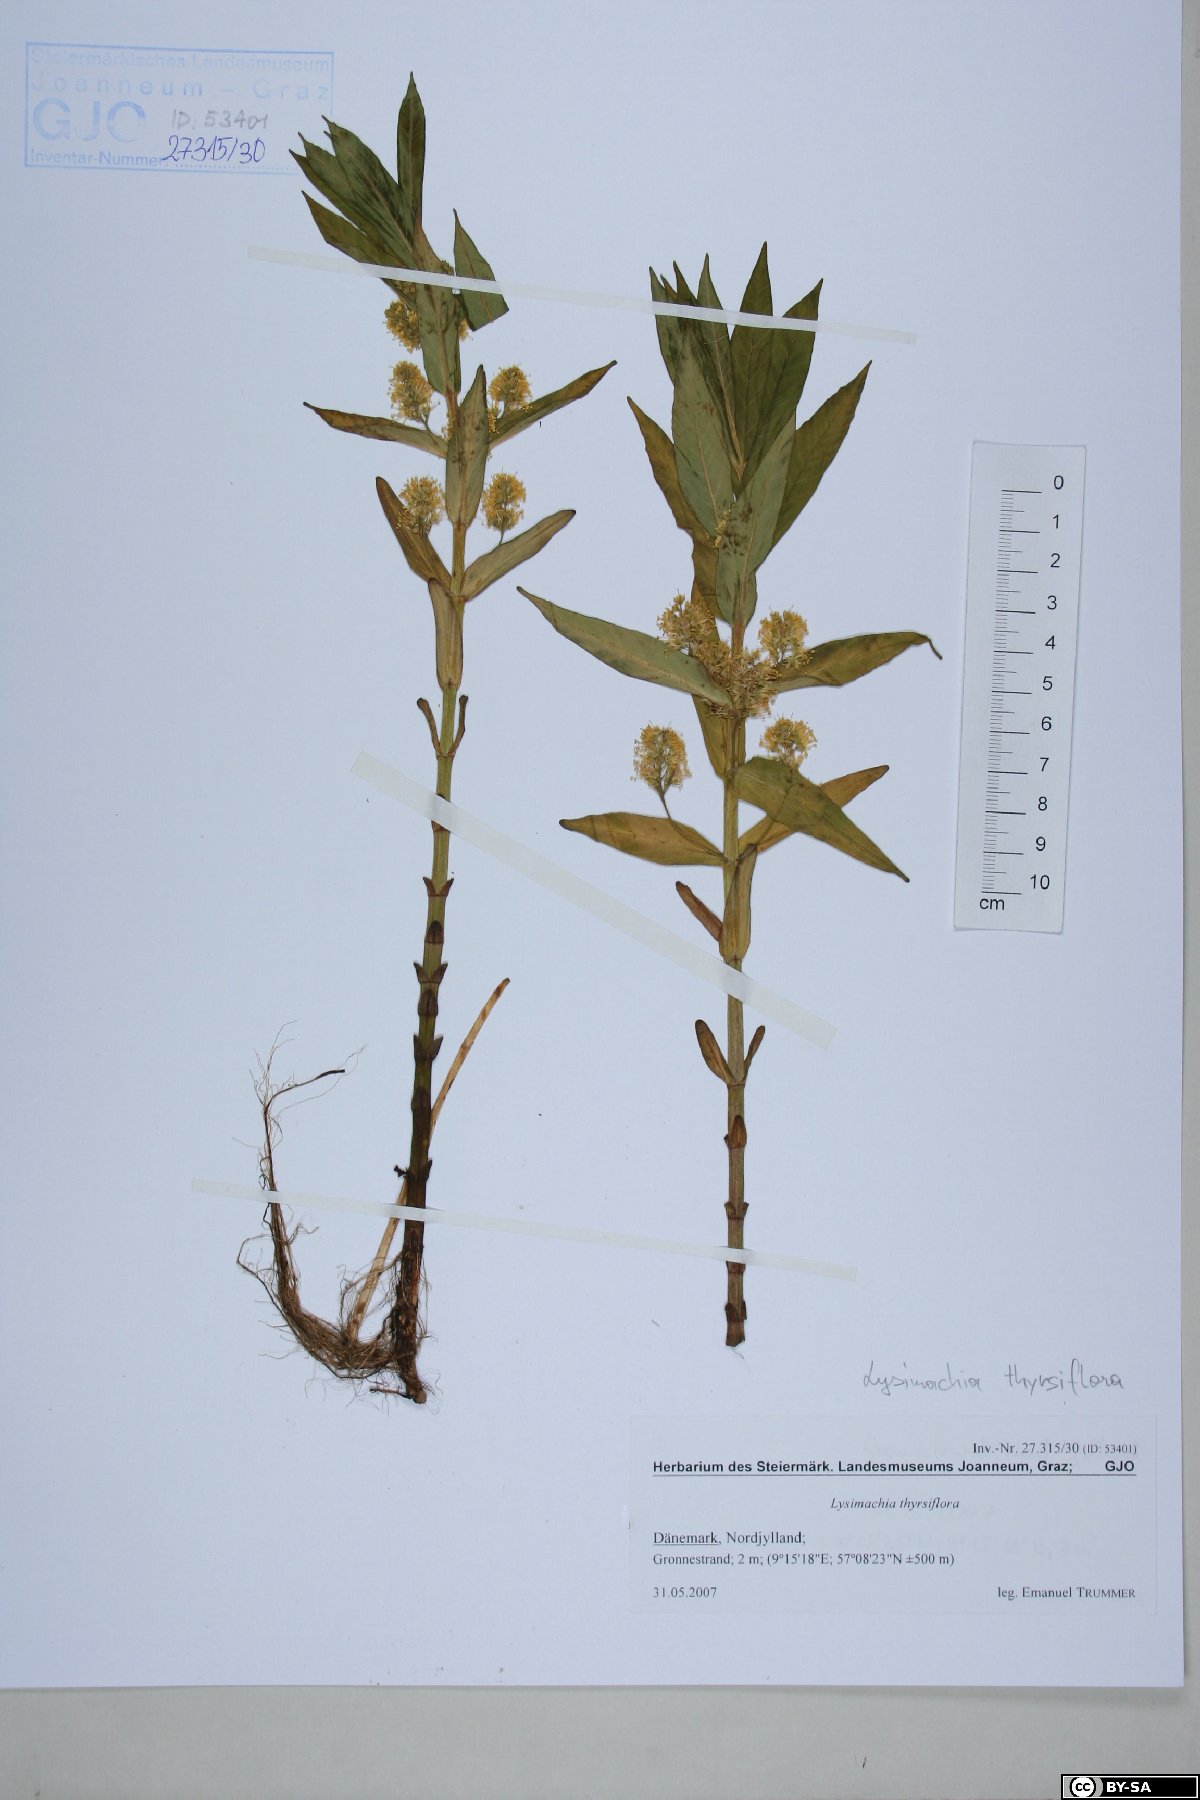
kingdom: Plantae
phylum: Tracheophyta
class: Magnoliopsida
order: Ericales
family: Primulaceae
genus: Lysimachia
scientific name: Lysimachia thyrsiflora
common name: Tufted loosestrife
